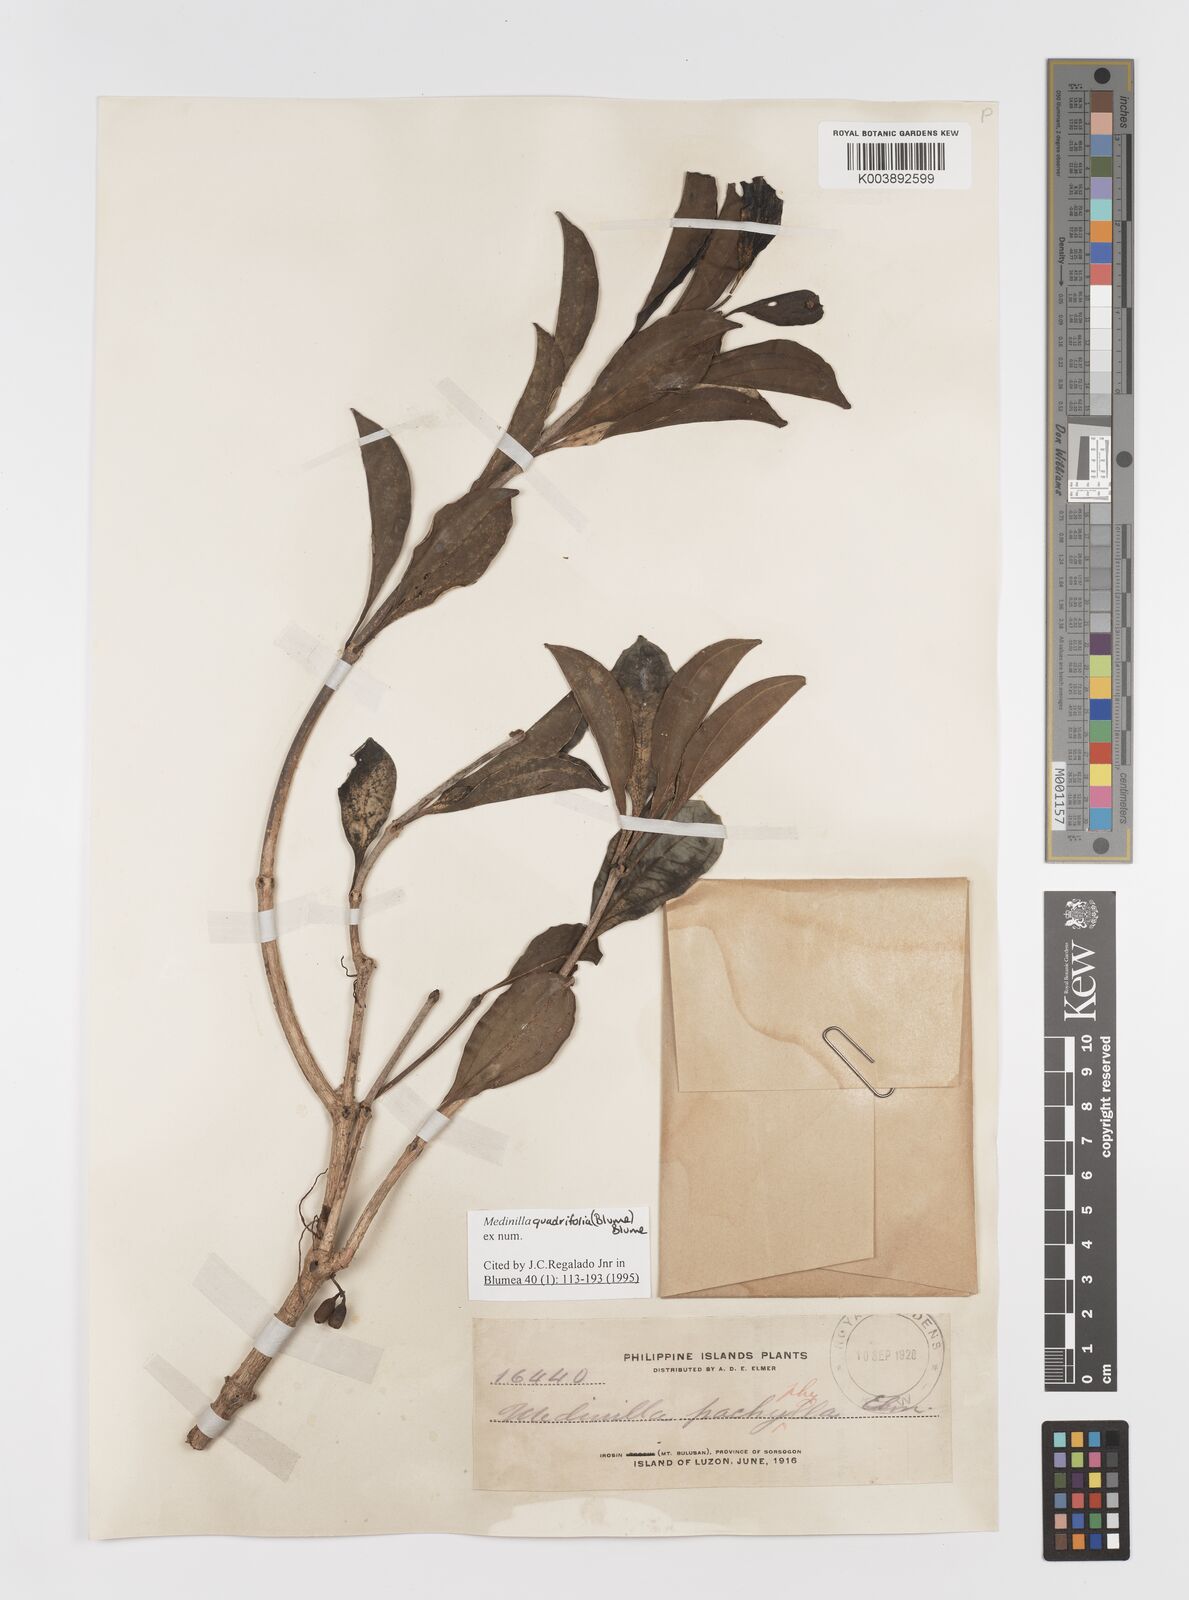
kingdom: Plantae
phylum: Tracheophyta
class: Magnoliopsida
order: Myrtales
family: Melastomataceae
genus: Medinilla
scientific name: Medinilla quadrifolia
